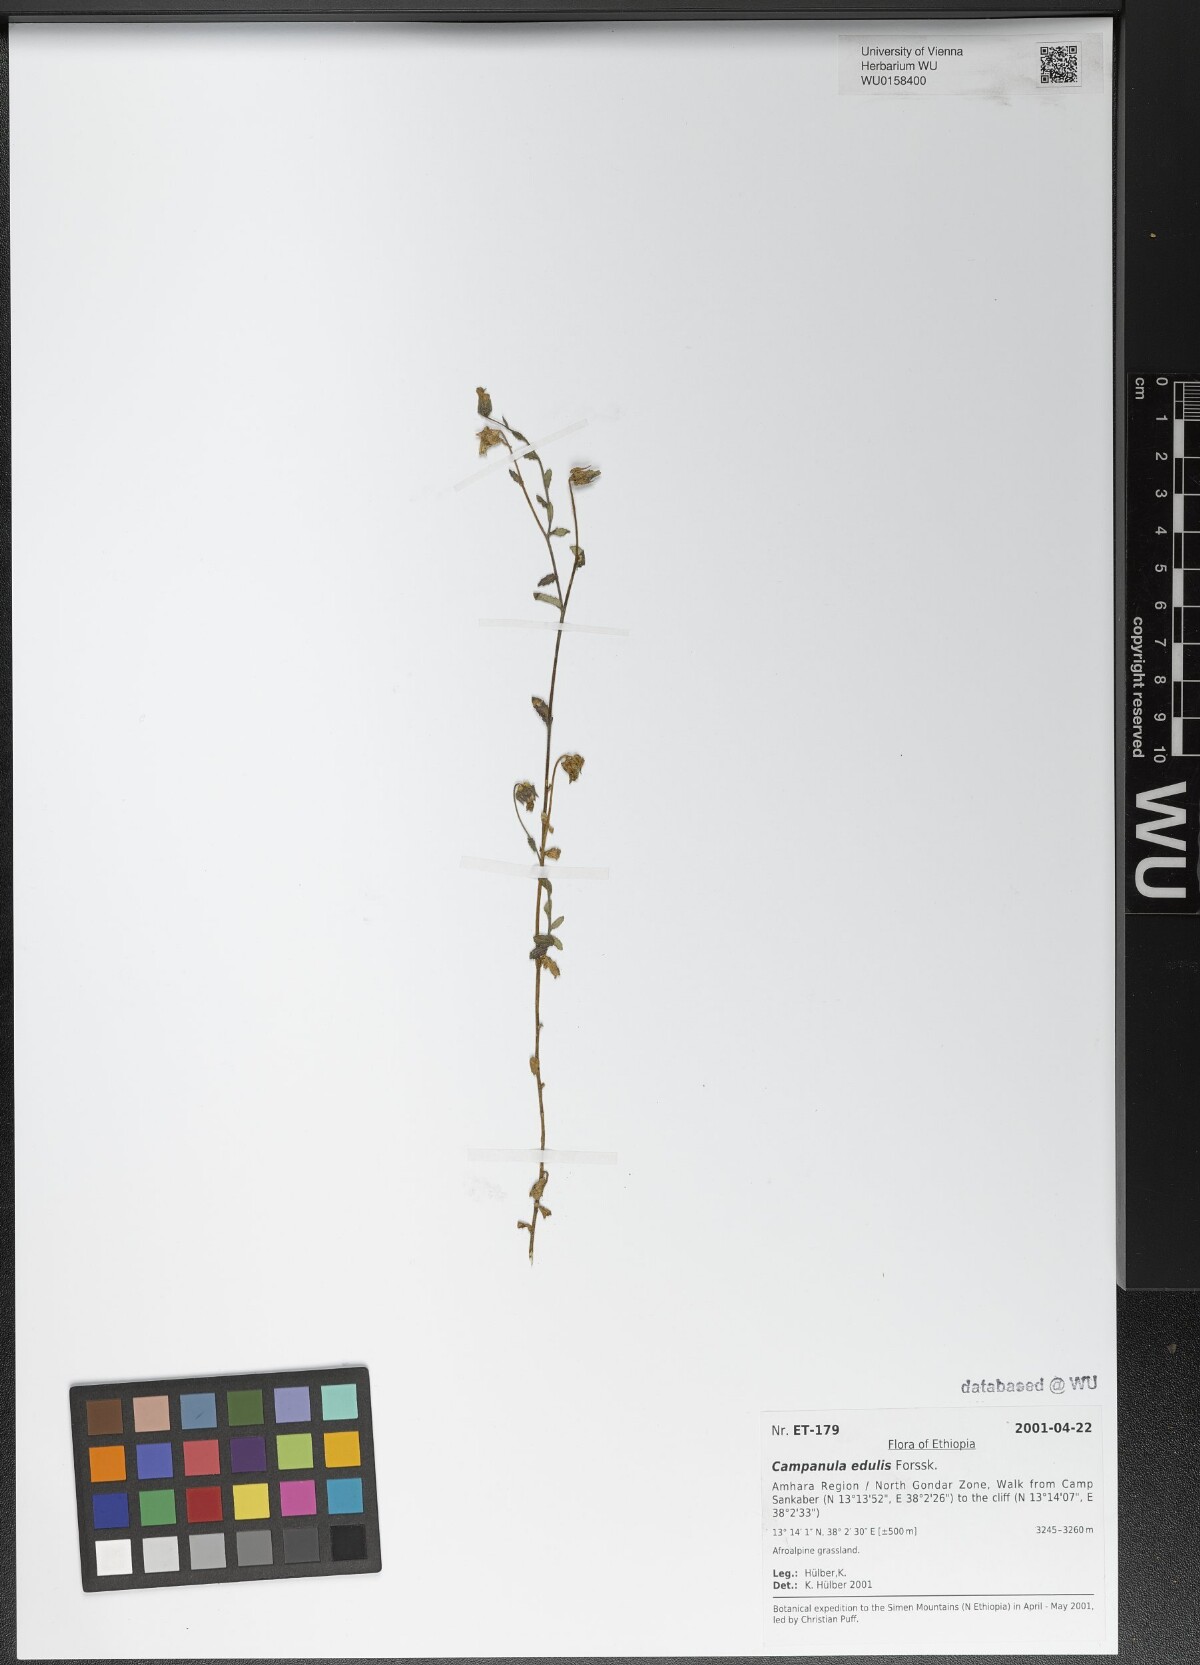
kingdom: Plantae
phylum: Tracheophyta
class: Magnoliopsida
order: Asterales
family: Campanulaceae
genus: Campanula
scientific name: Campanula edulis
